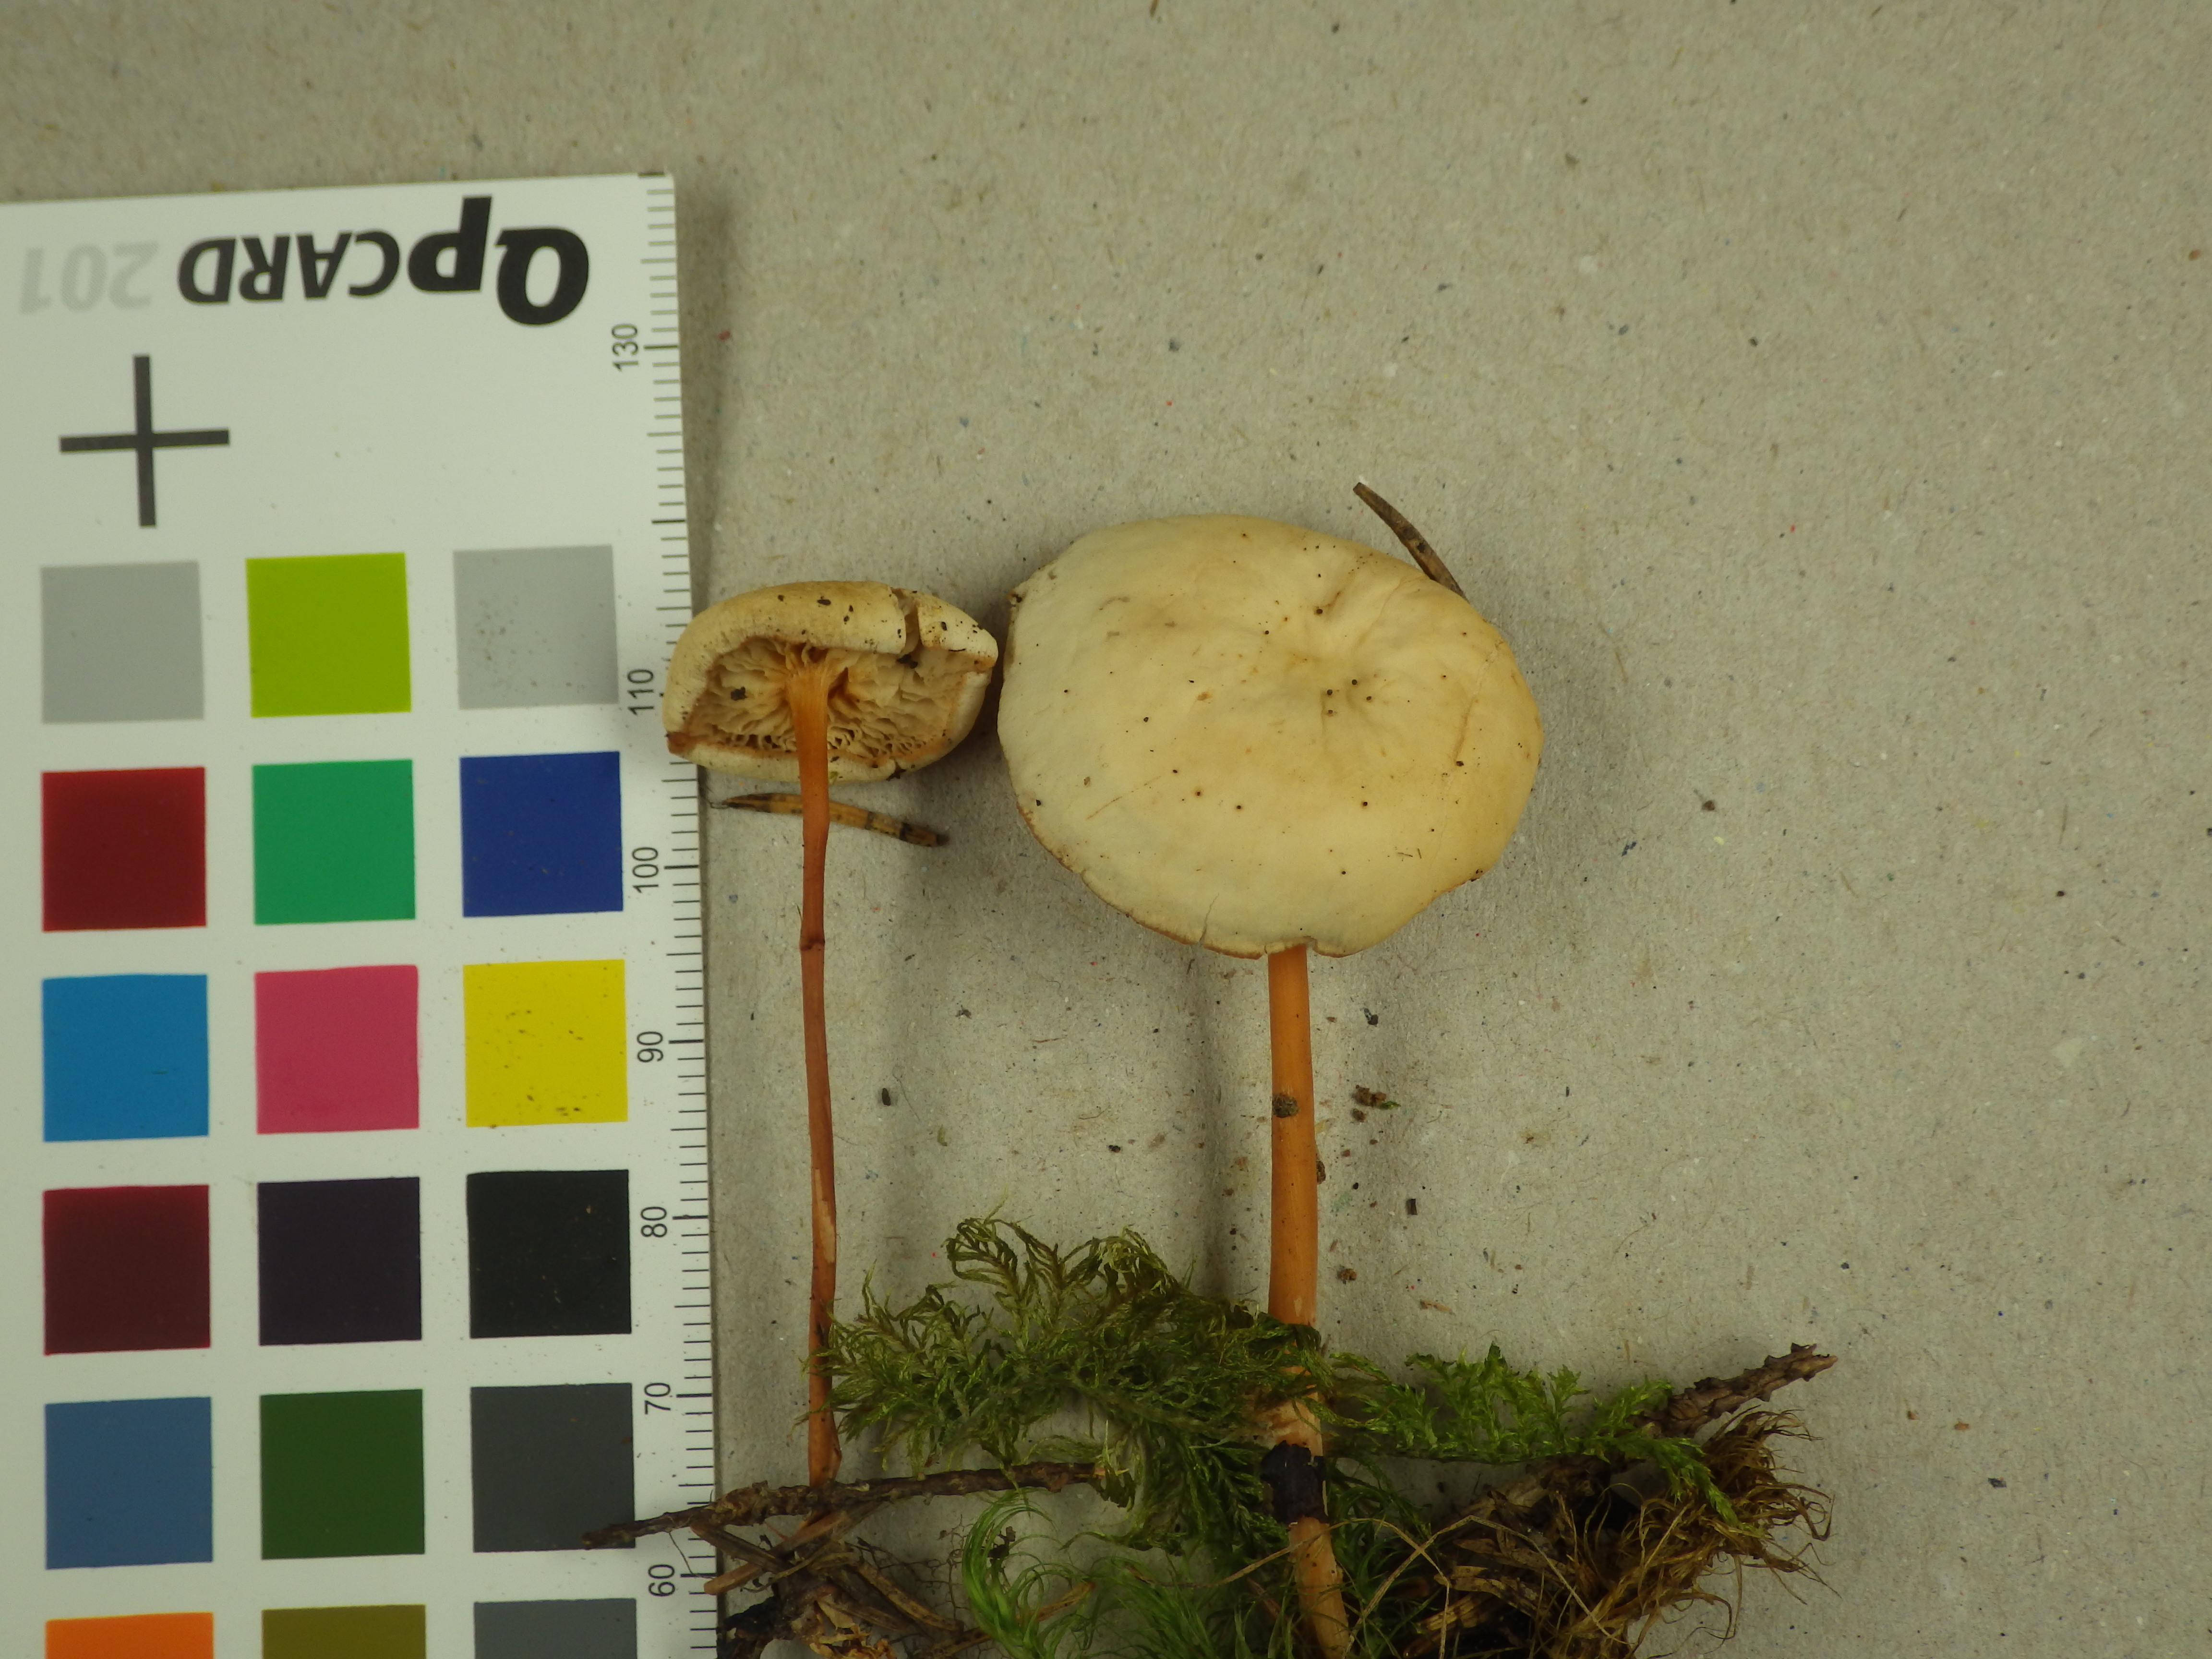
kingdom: Fungi
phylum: Basidiomycota
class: Agaricomycetes
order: Agaricales
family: Omphalotaceae
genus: Gymnopus
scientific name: Gymnopus dryophilus
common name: Penny top
